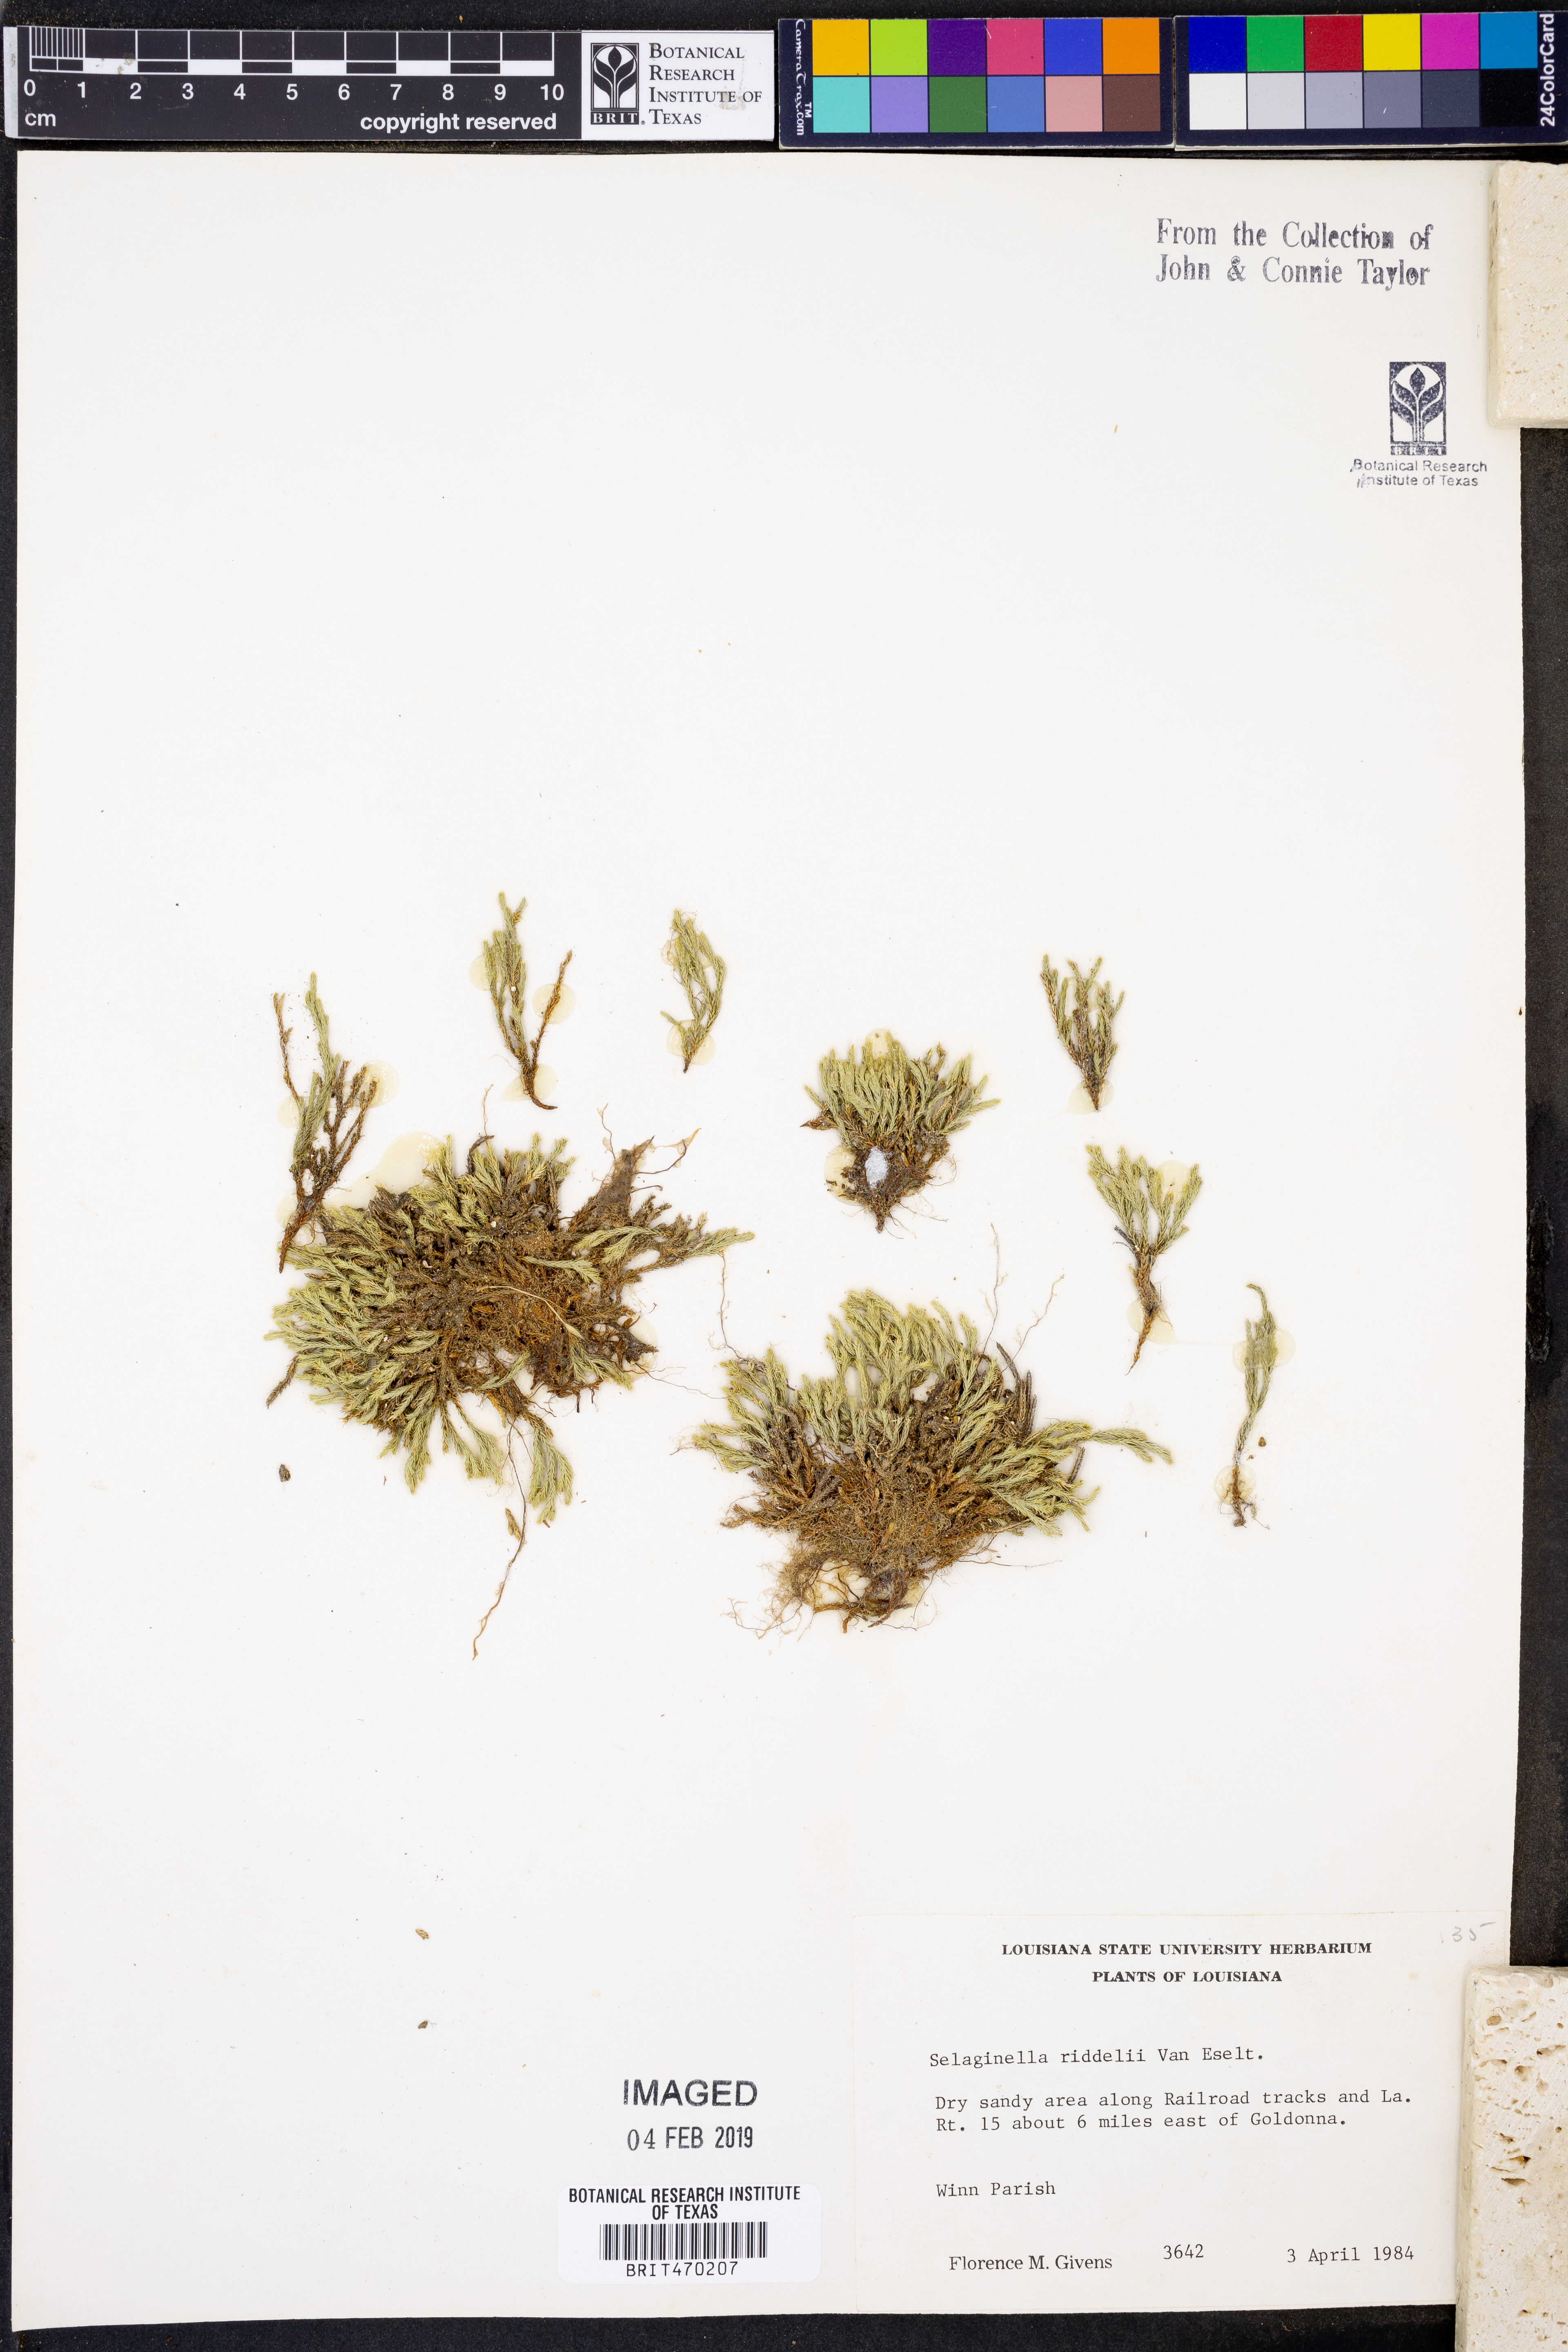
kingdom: Plantae
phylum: Tracheophyta
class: Lycopodiopsida
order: Selaginellales
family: Selaginellaceae
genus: Selaginella
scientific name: Selaginella corallina
